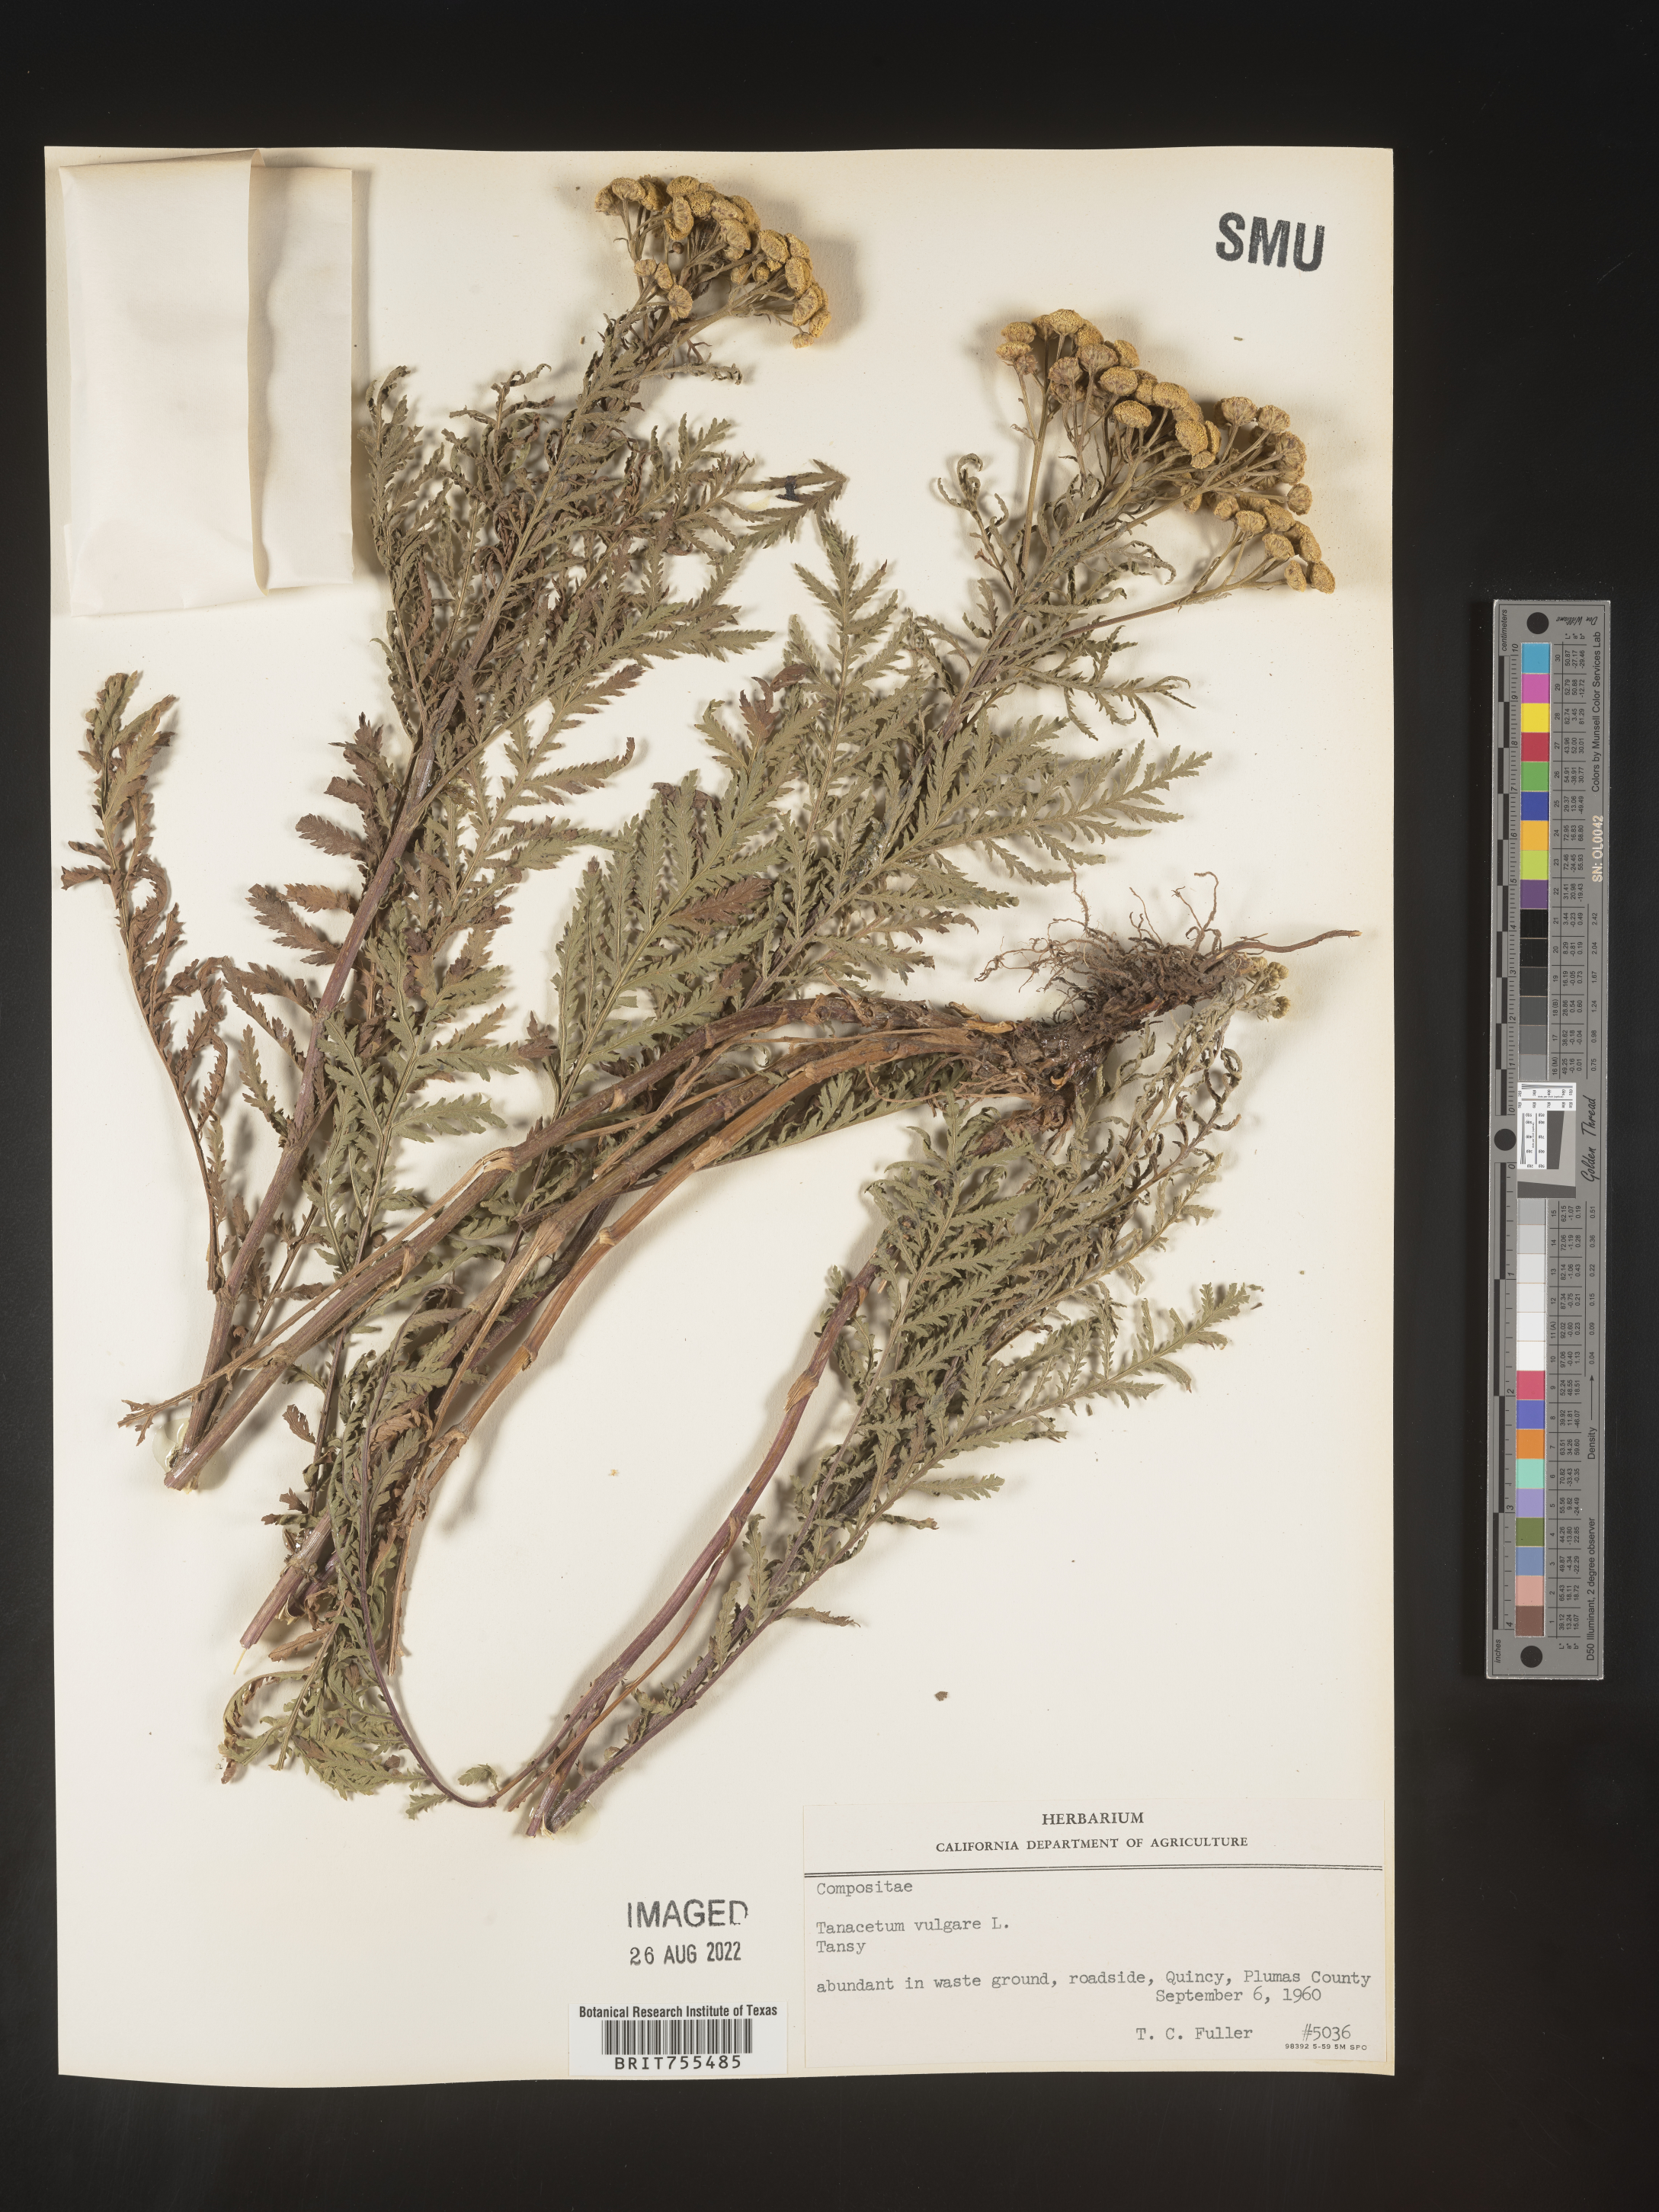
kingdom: Plantae
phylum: Tracheophyta
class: Magnoliopsida
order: Asterales
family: Asteraceae
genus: Tanacetum
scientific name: Tanacetum vulgare
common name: Common tansy
